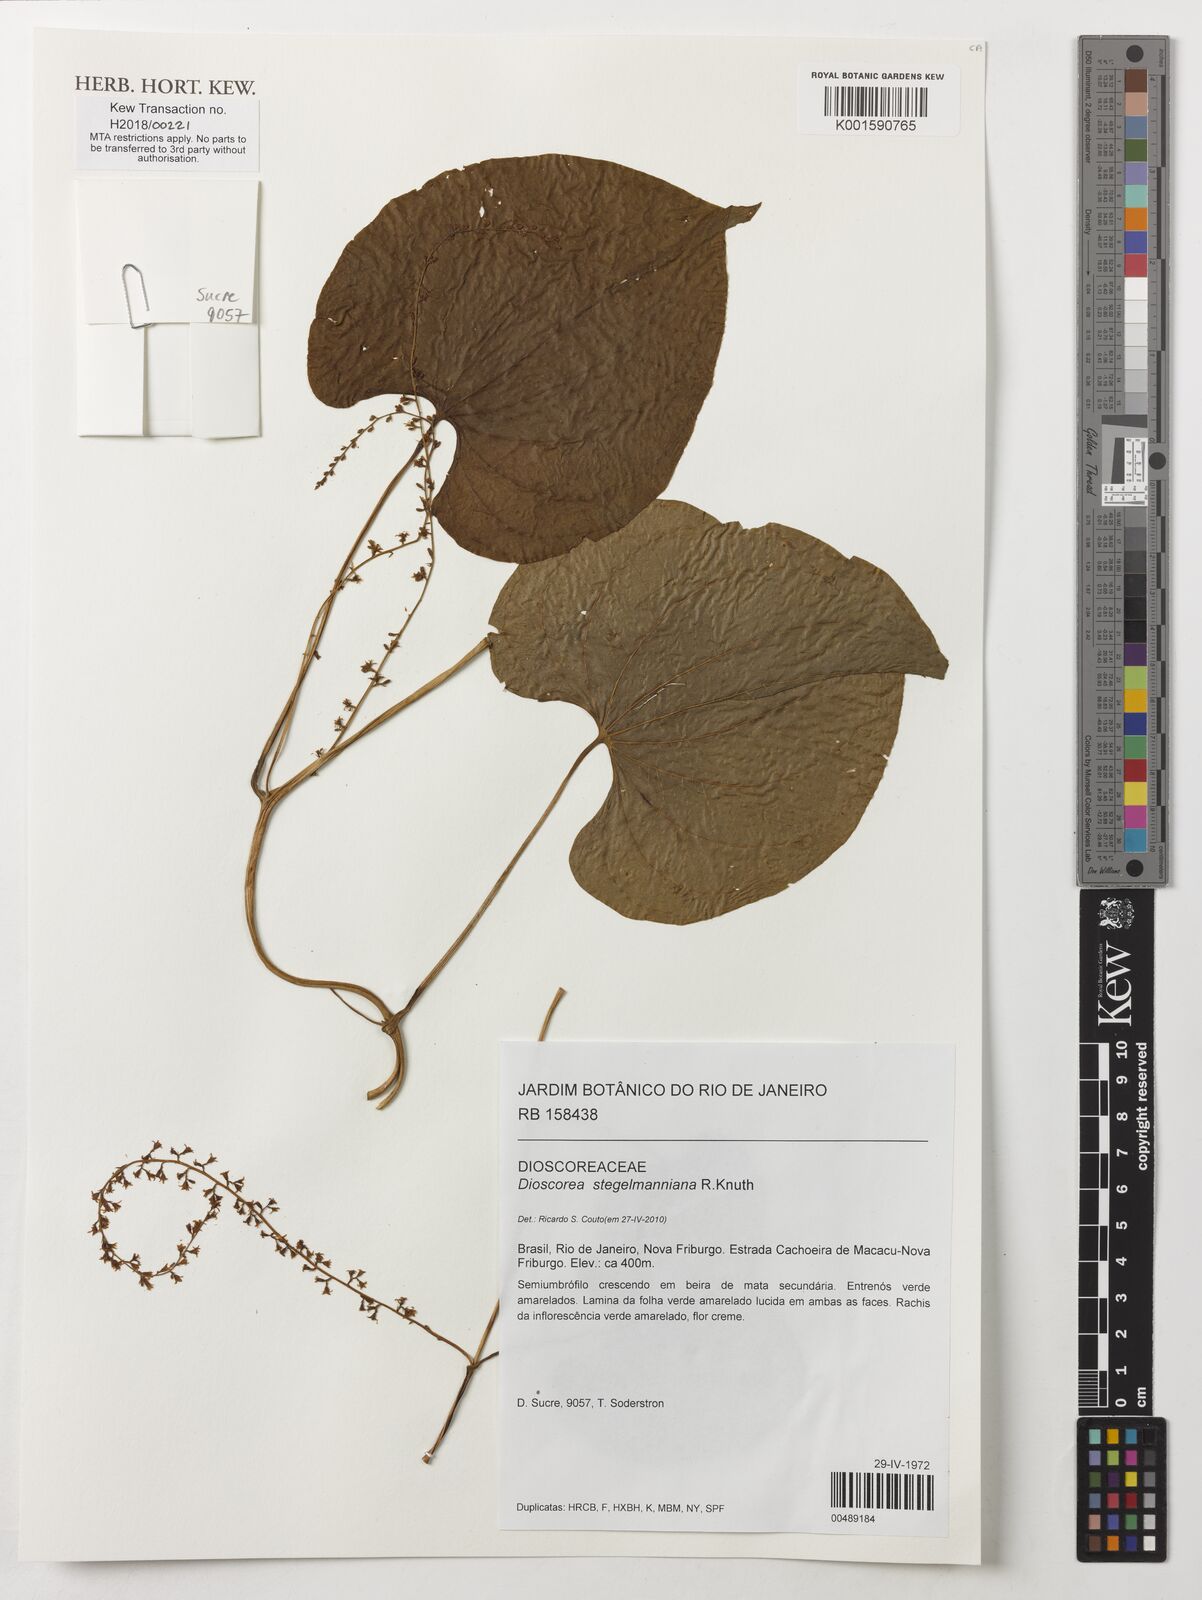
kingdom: Plantae
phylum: Tracheophyta
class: Liliopsida
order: Dioscoreales
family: Dioscoreaceae
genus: Dioscorea
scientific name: Dioscorea stegelmanniana
